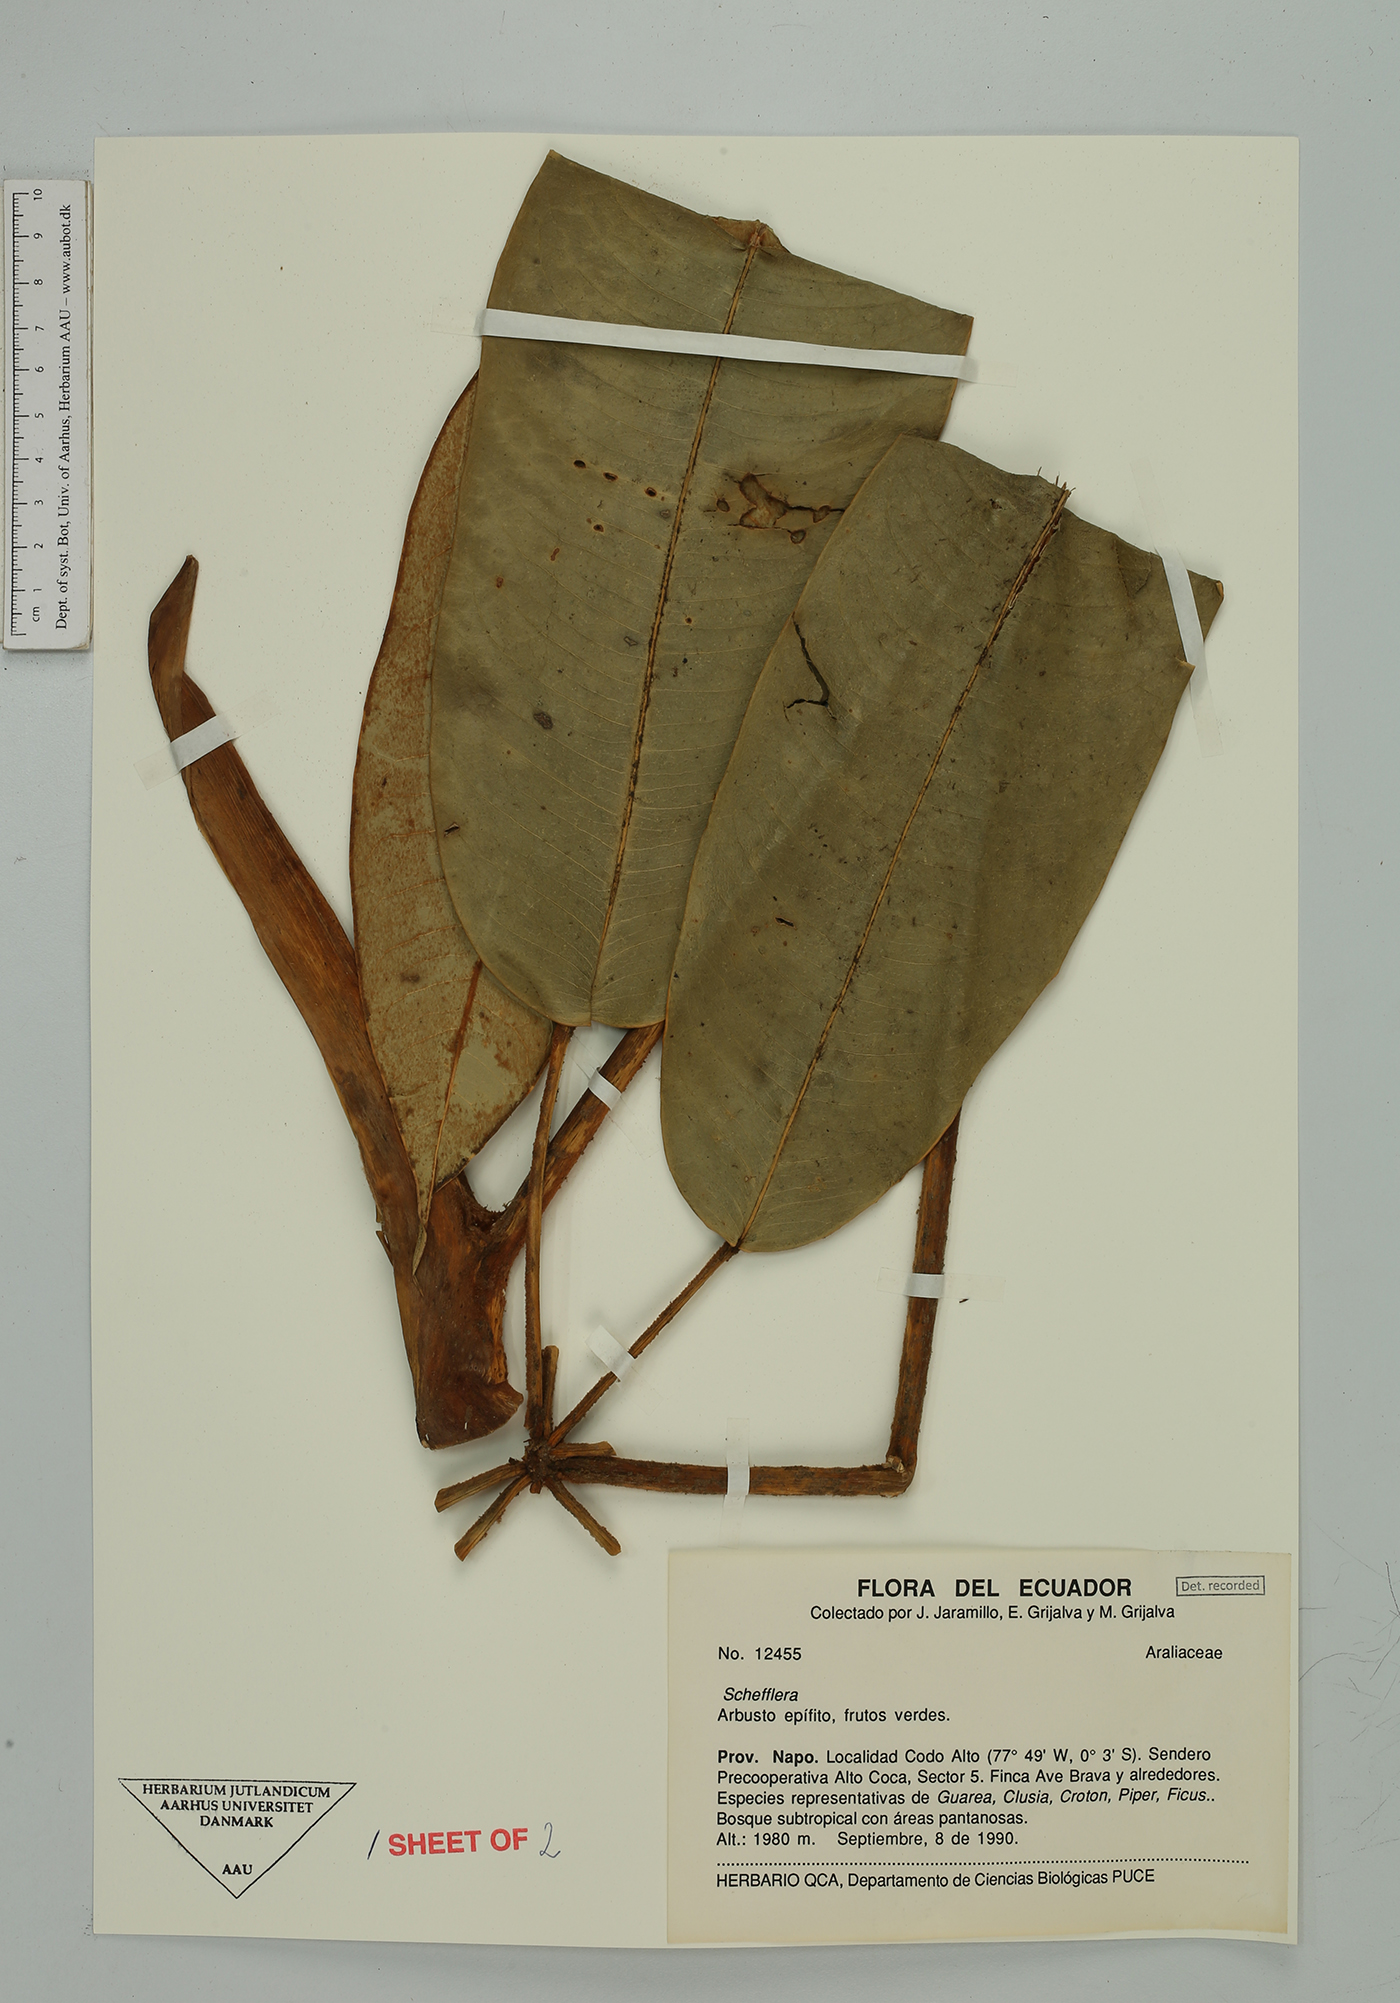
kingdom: Plantae
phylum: Tracheophyta
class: Magnoliopsida
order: Apiales
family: Araliaceae
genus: Sciodaphyllum
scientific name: Sciodaphyllum pentandrum
